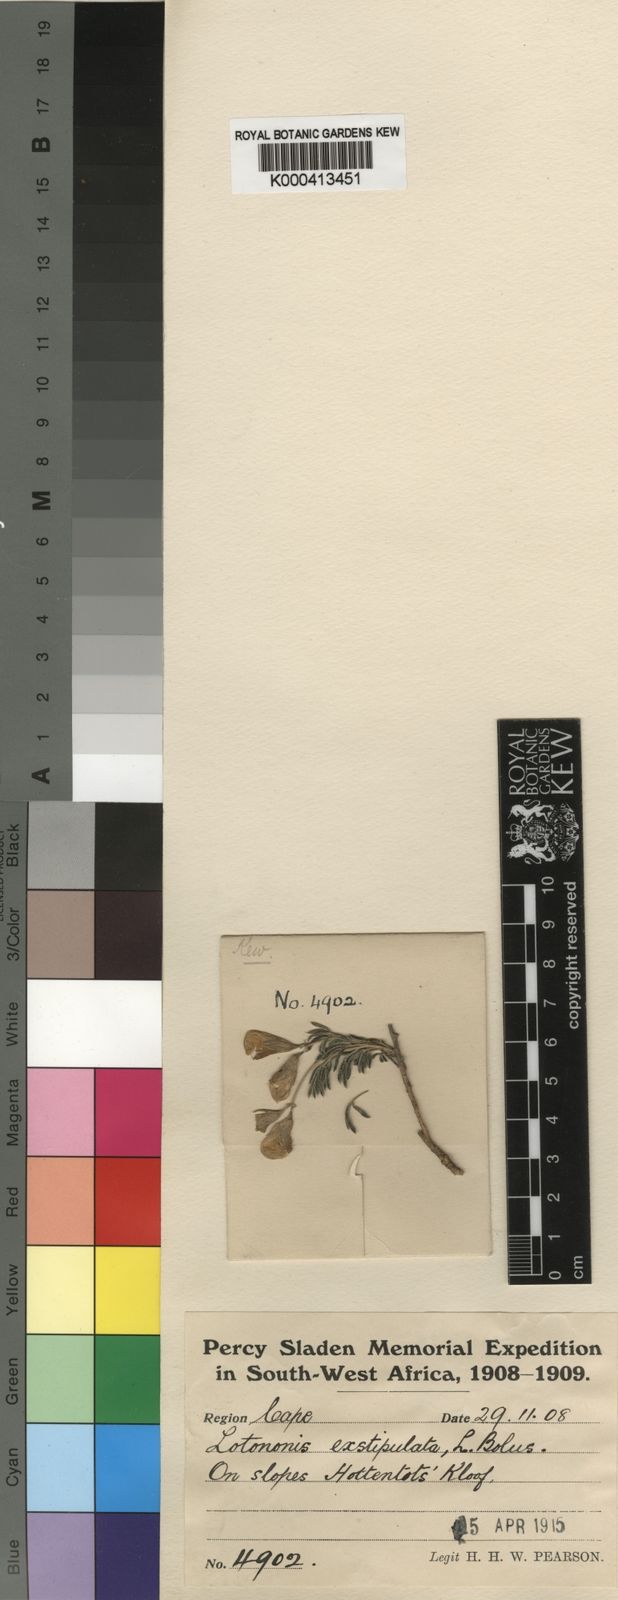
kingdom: Plantae
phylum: Tracheophyta
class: Magnoliopsida
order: Fabales
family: Fabaceae
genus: Lotononis
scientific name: Lotononis exstipulata
